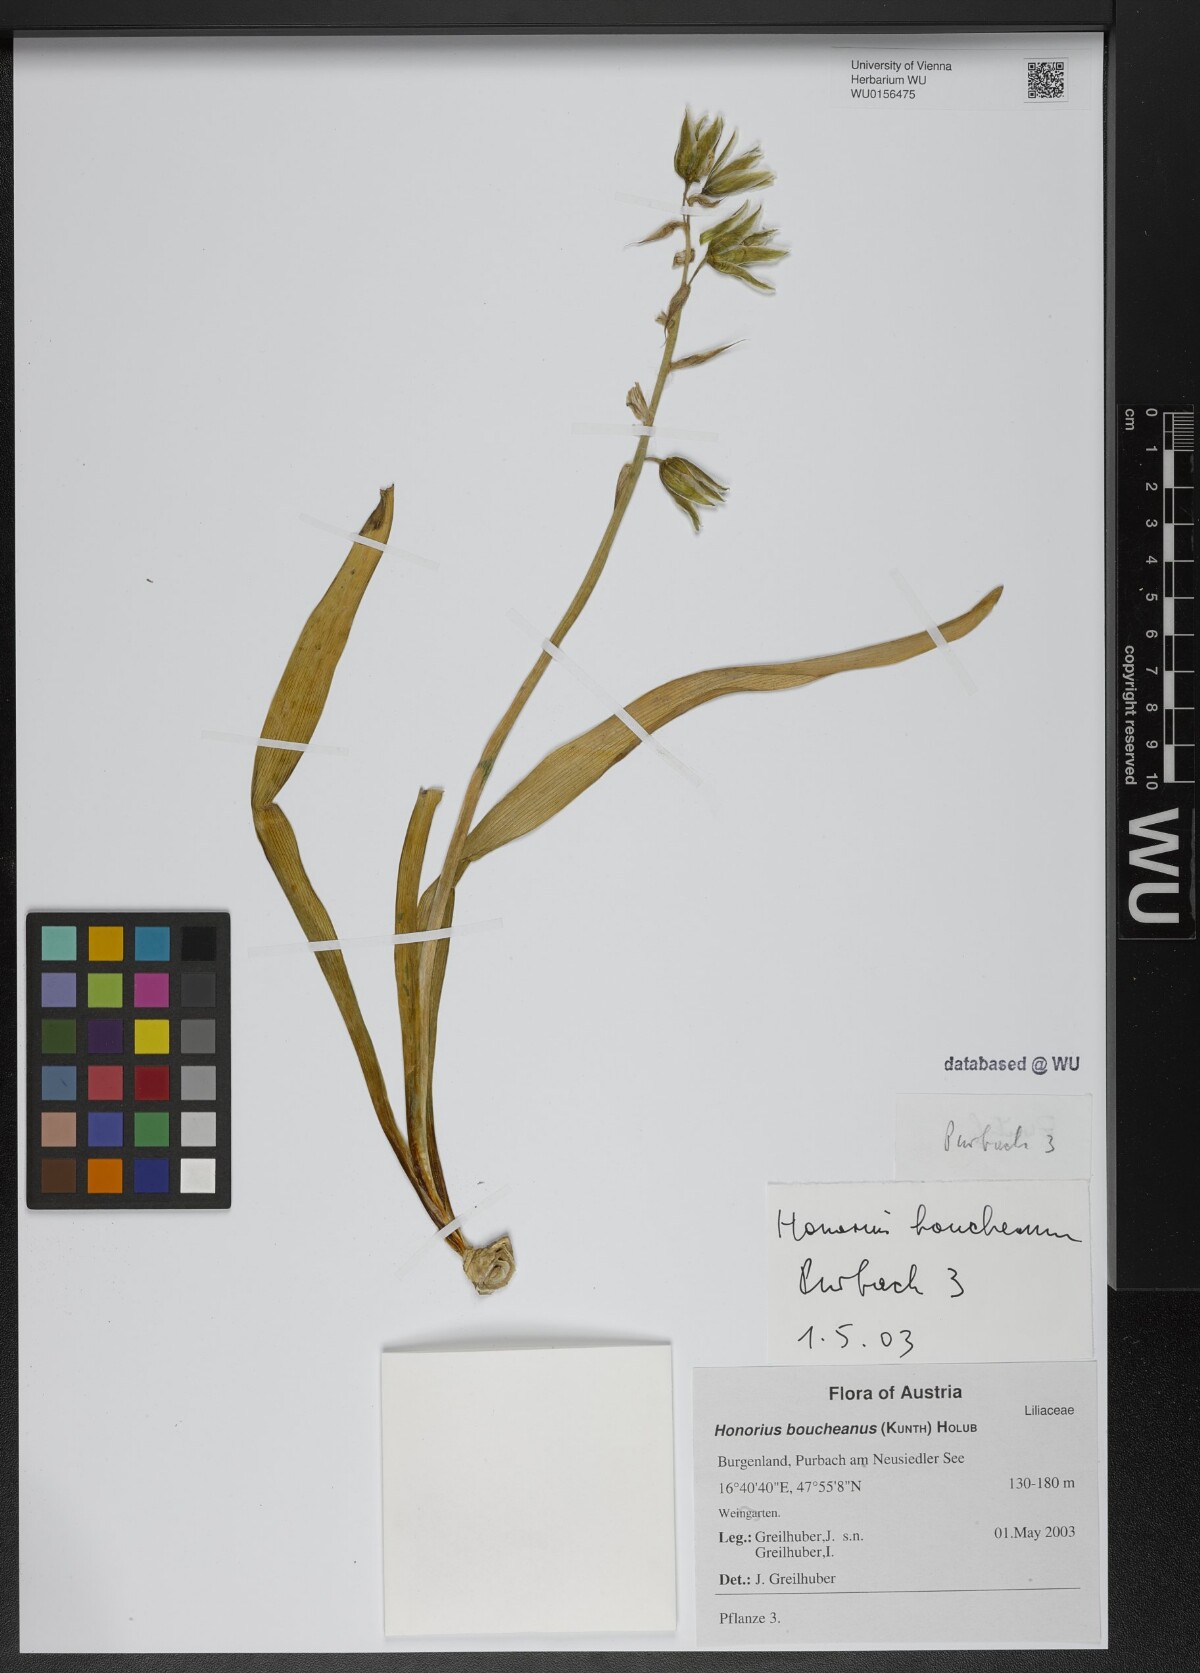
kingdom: Plantae
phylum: Tracheophyta
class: Liliopsida
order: Asparagales
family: Asparagaceae
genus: Ornithogalum
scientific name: Ornithogalum boucheanum
